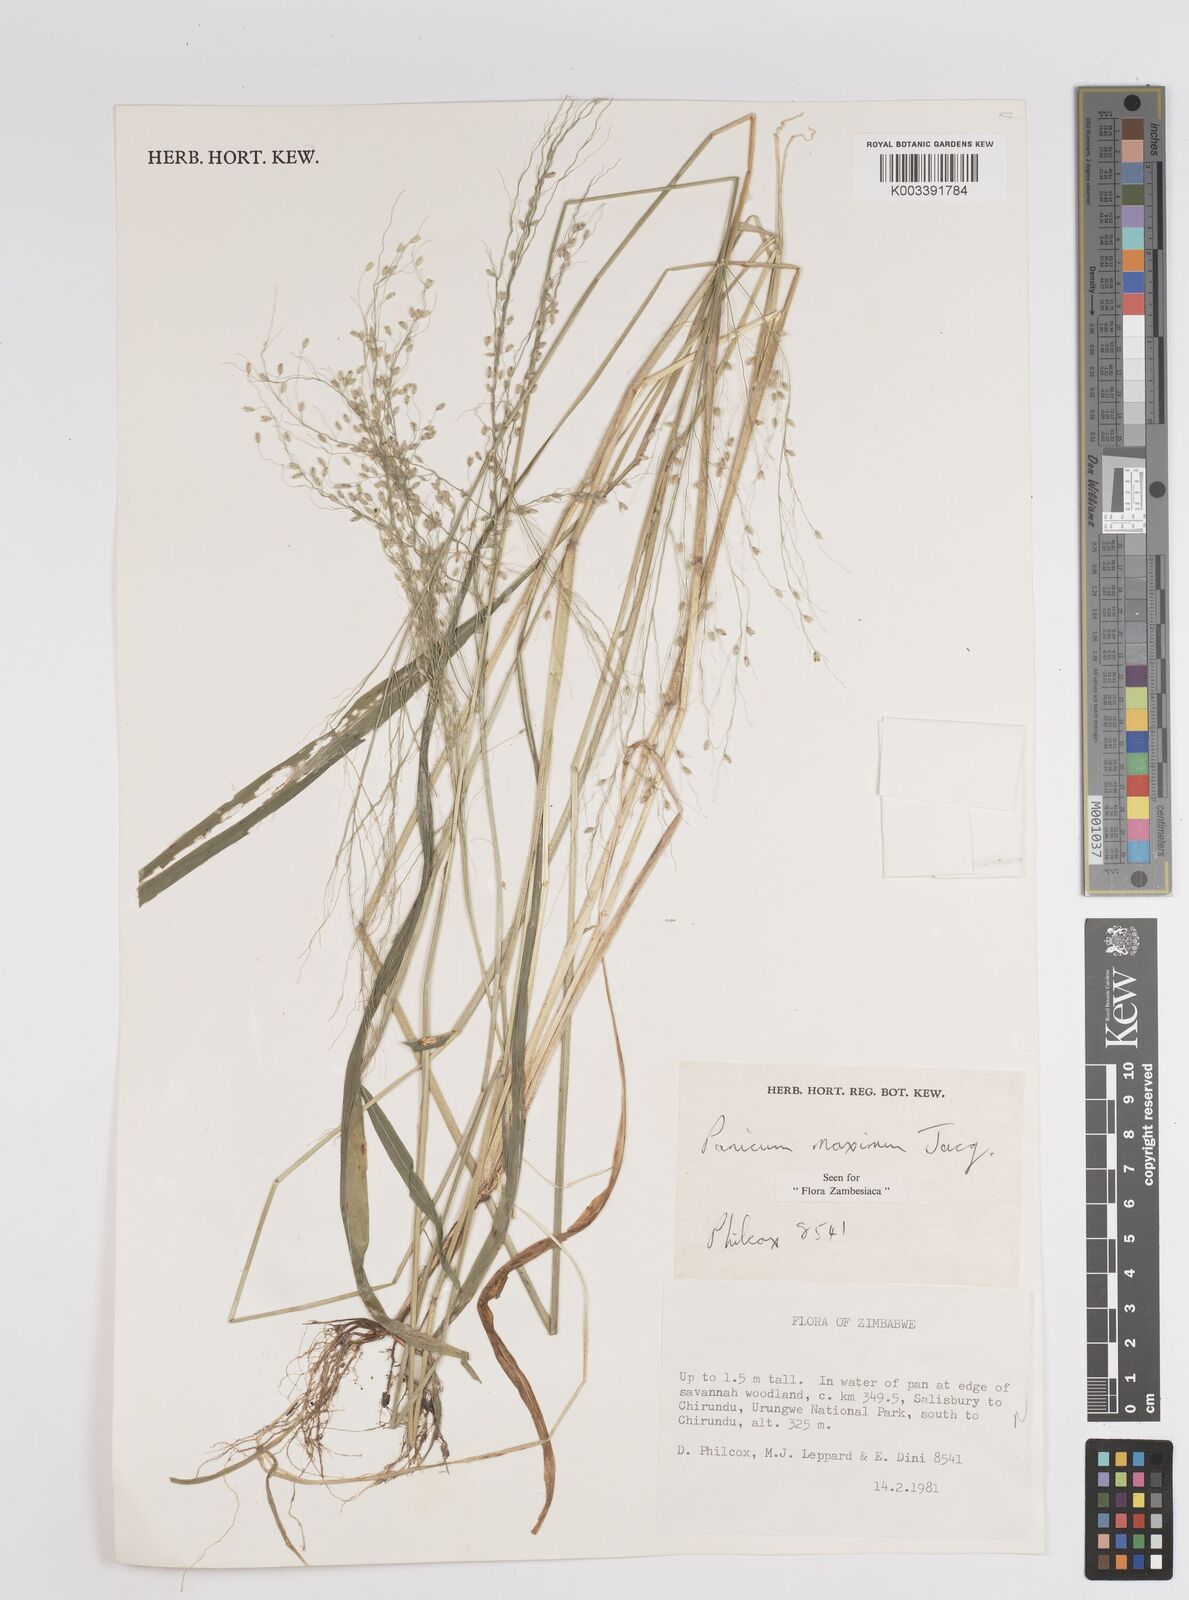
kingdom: Plantae
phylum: Tracheophyta
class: Liliopsida
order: Poales
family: Poaceae
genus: Megathyrsus
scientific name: Megathyrsus maximus
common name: Guineagrass
